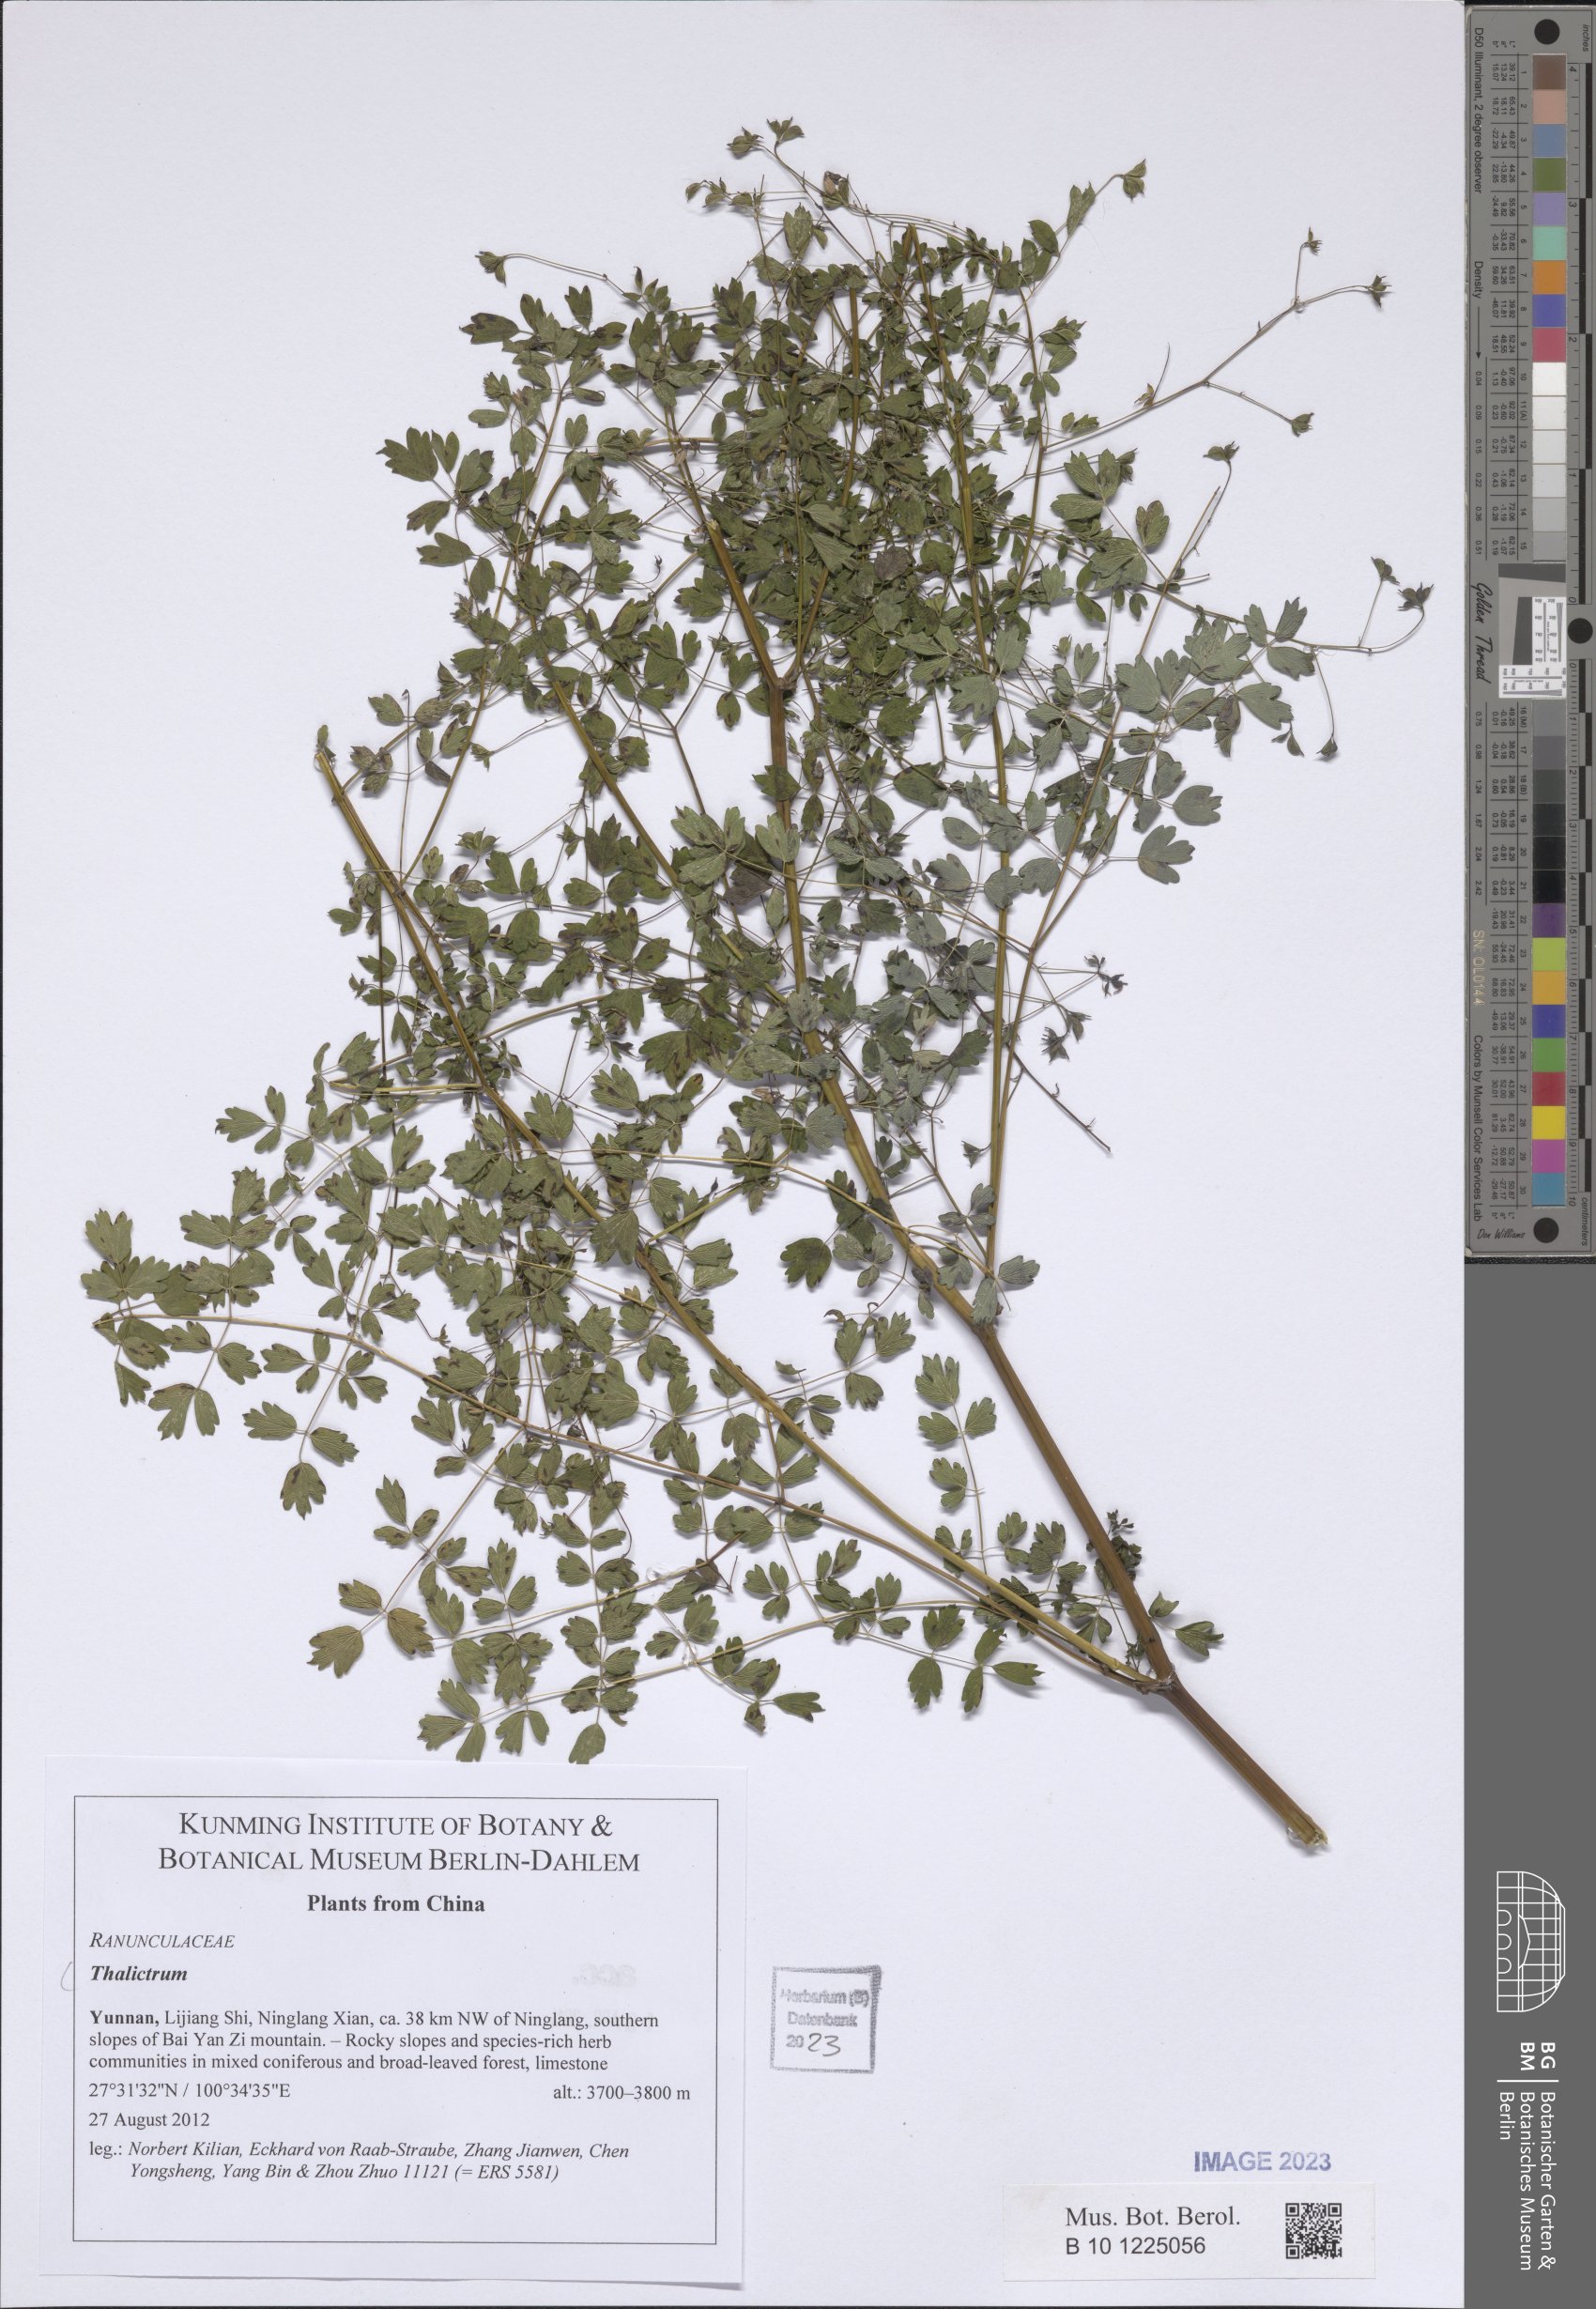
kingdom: Plantae
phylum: Tracheophyta
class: Magnoliopsida
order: Ranunculales
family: Ranunculaceae
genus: Thalictrum
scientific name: Thalictrum
